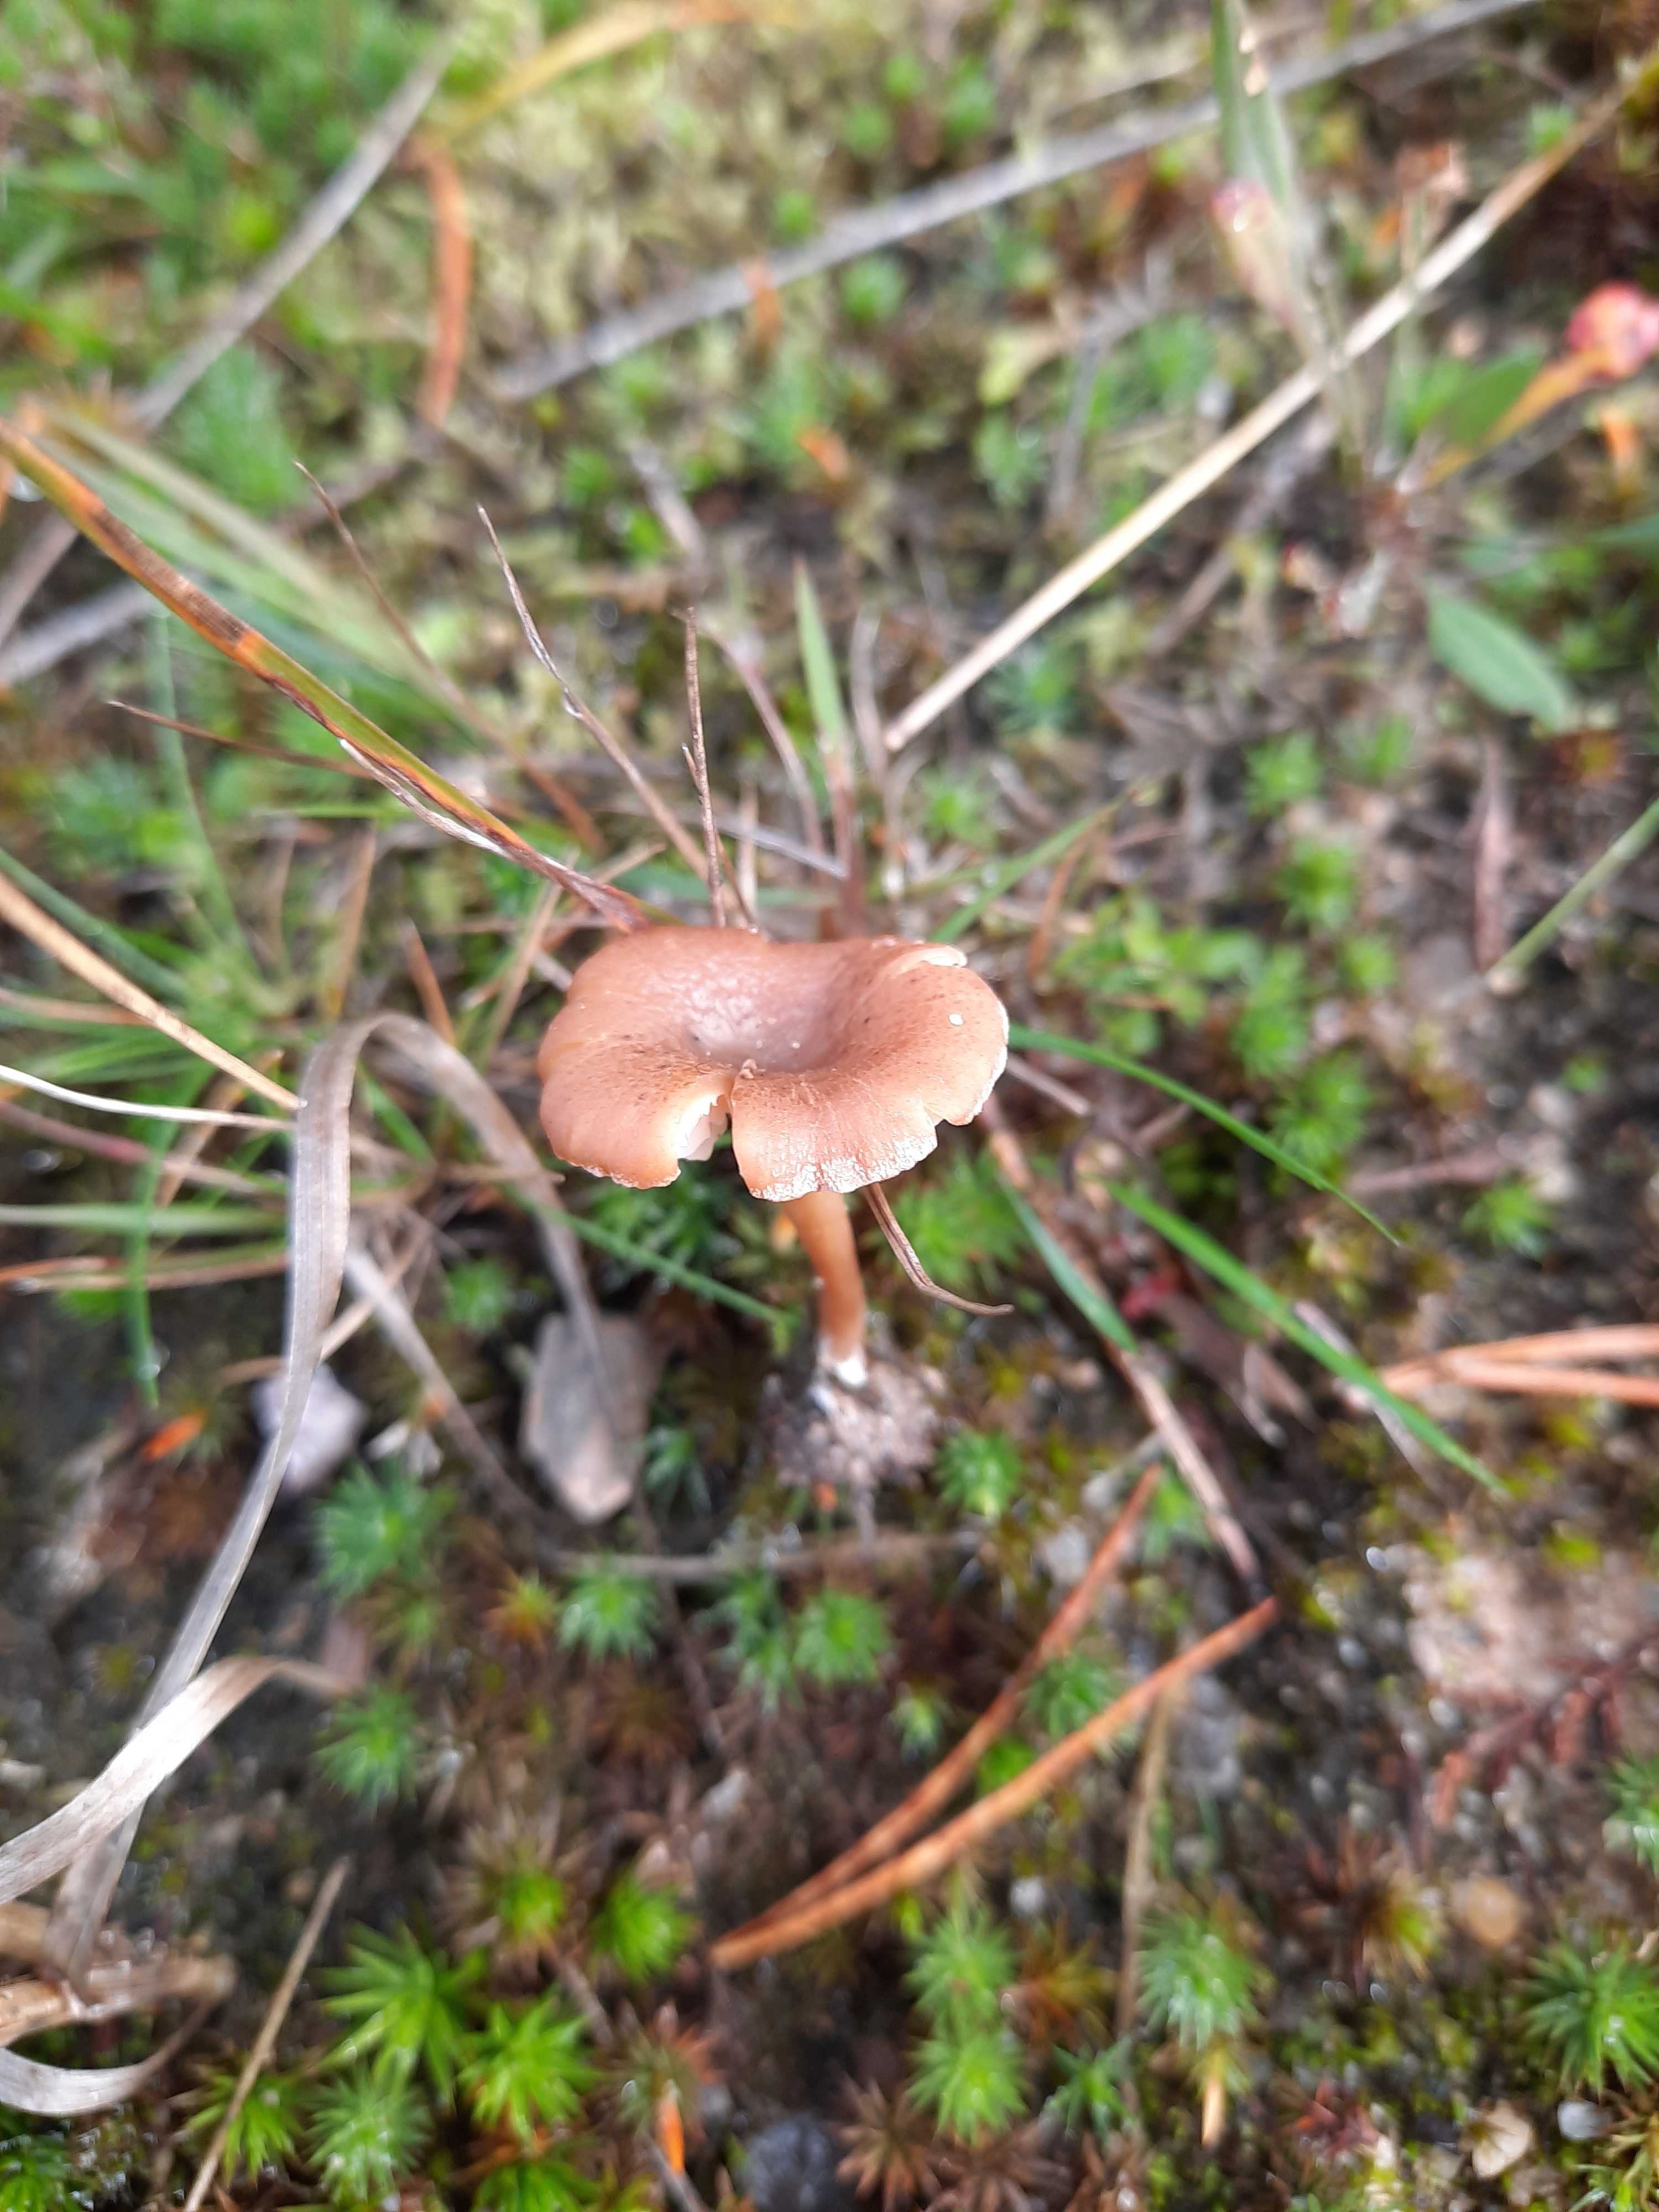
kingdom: Fungi
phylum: Basidiomycota
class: Agaricomycetes
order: Agaricales
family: Callistosporiaceae
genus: Pseudolaccaria
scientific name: Pseudolaccaria pachyphylla
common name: hvælvet tykblad
